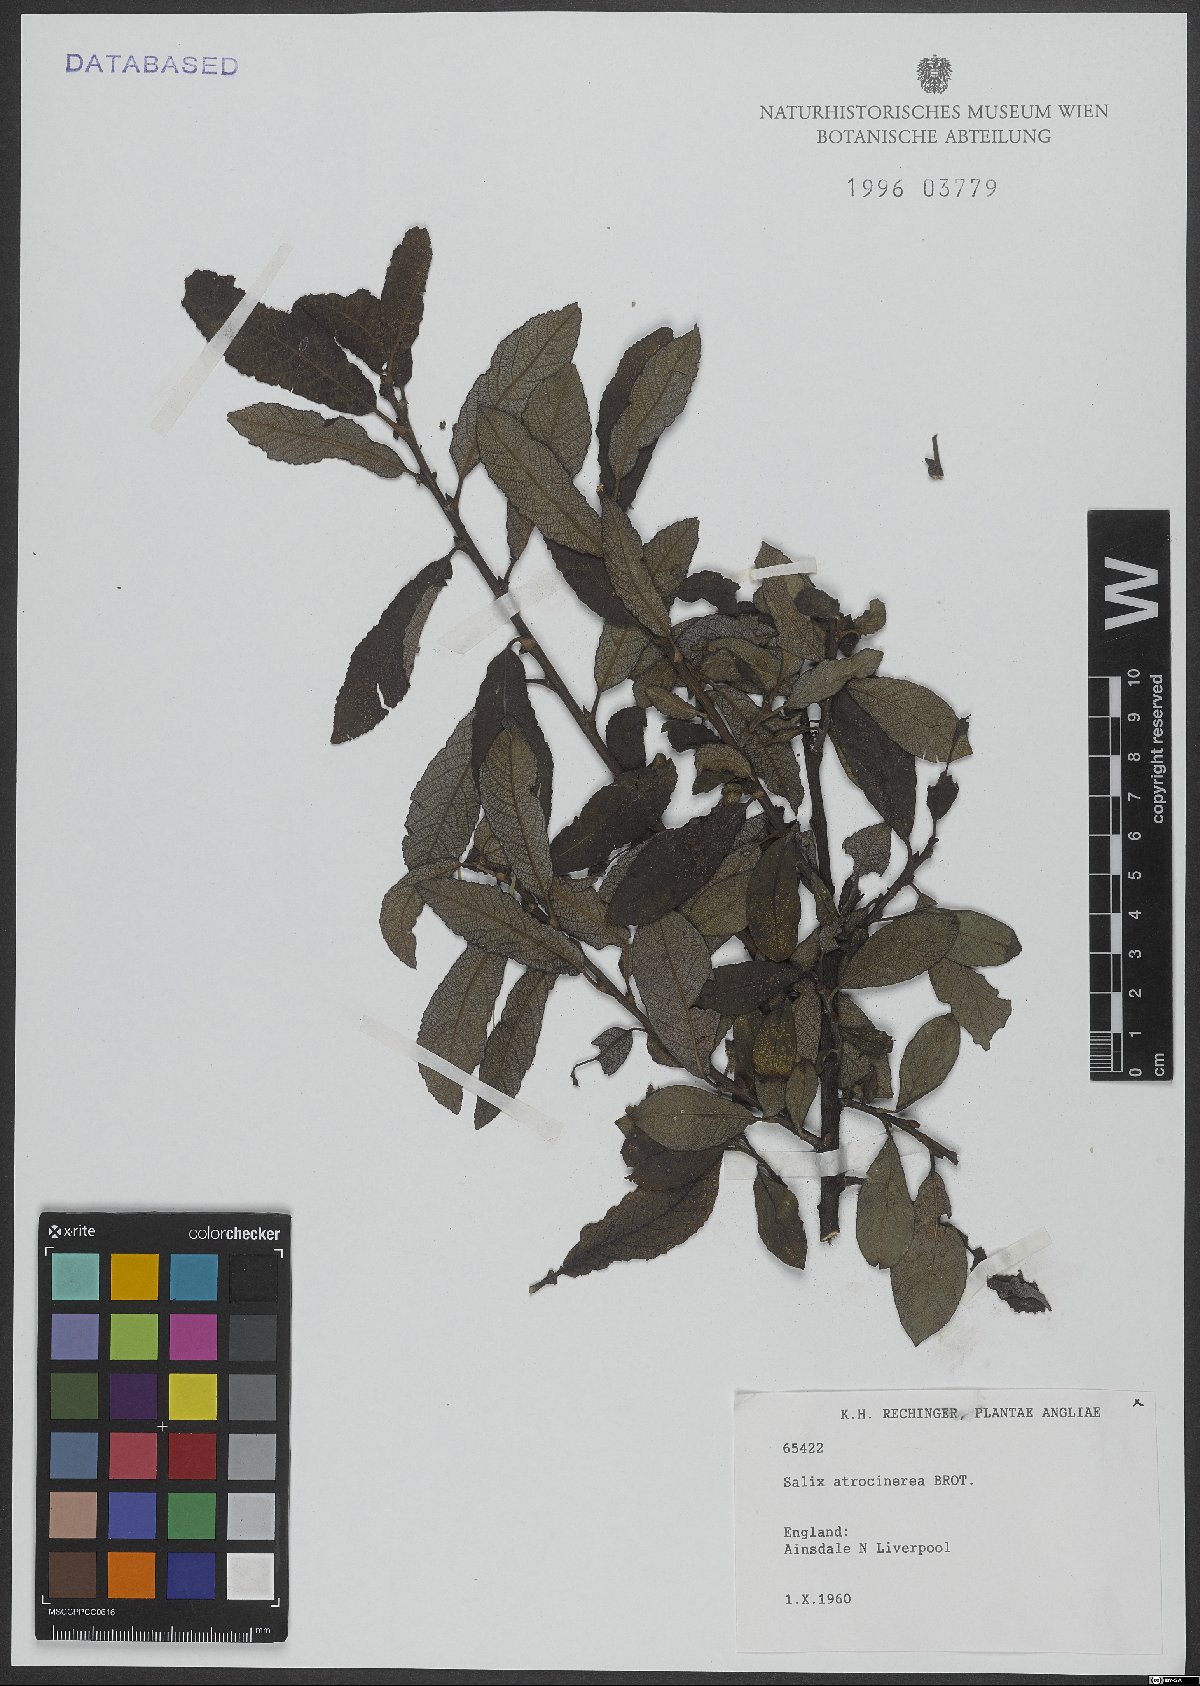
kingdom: Plantae
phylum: Tracheophyta
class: Magnoliopsida
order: Malpighiales
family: Salicaceae
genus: Salix
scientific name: Salix atrocinerea
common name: Rusty willow
